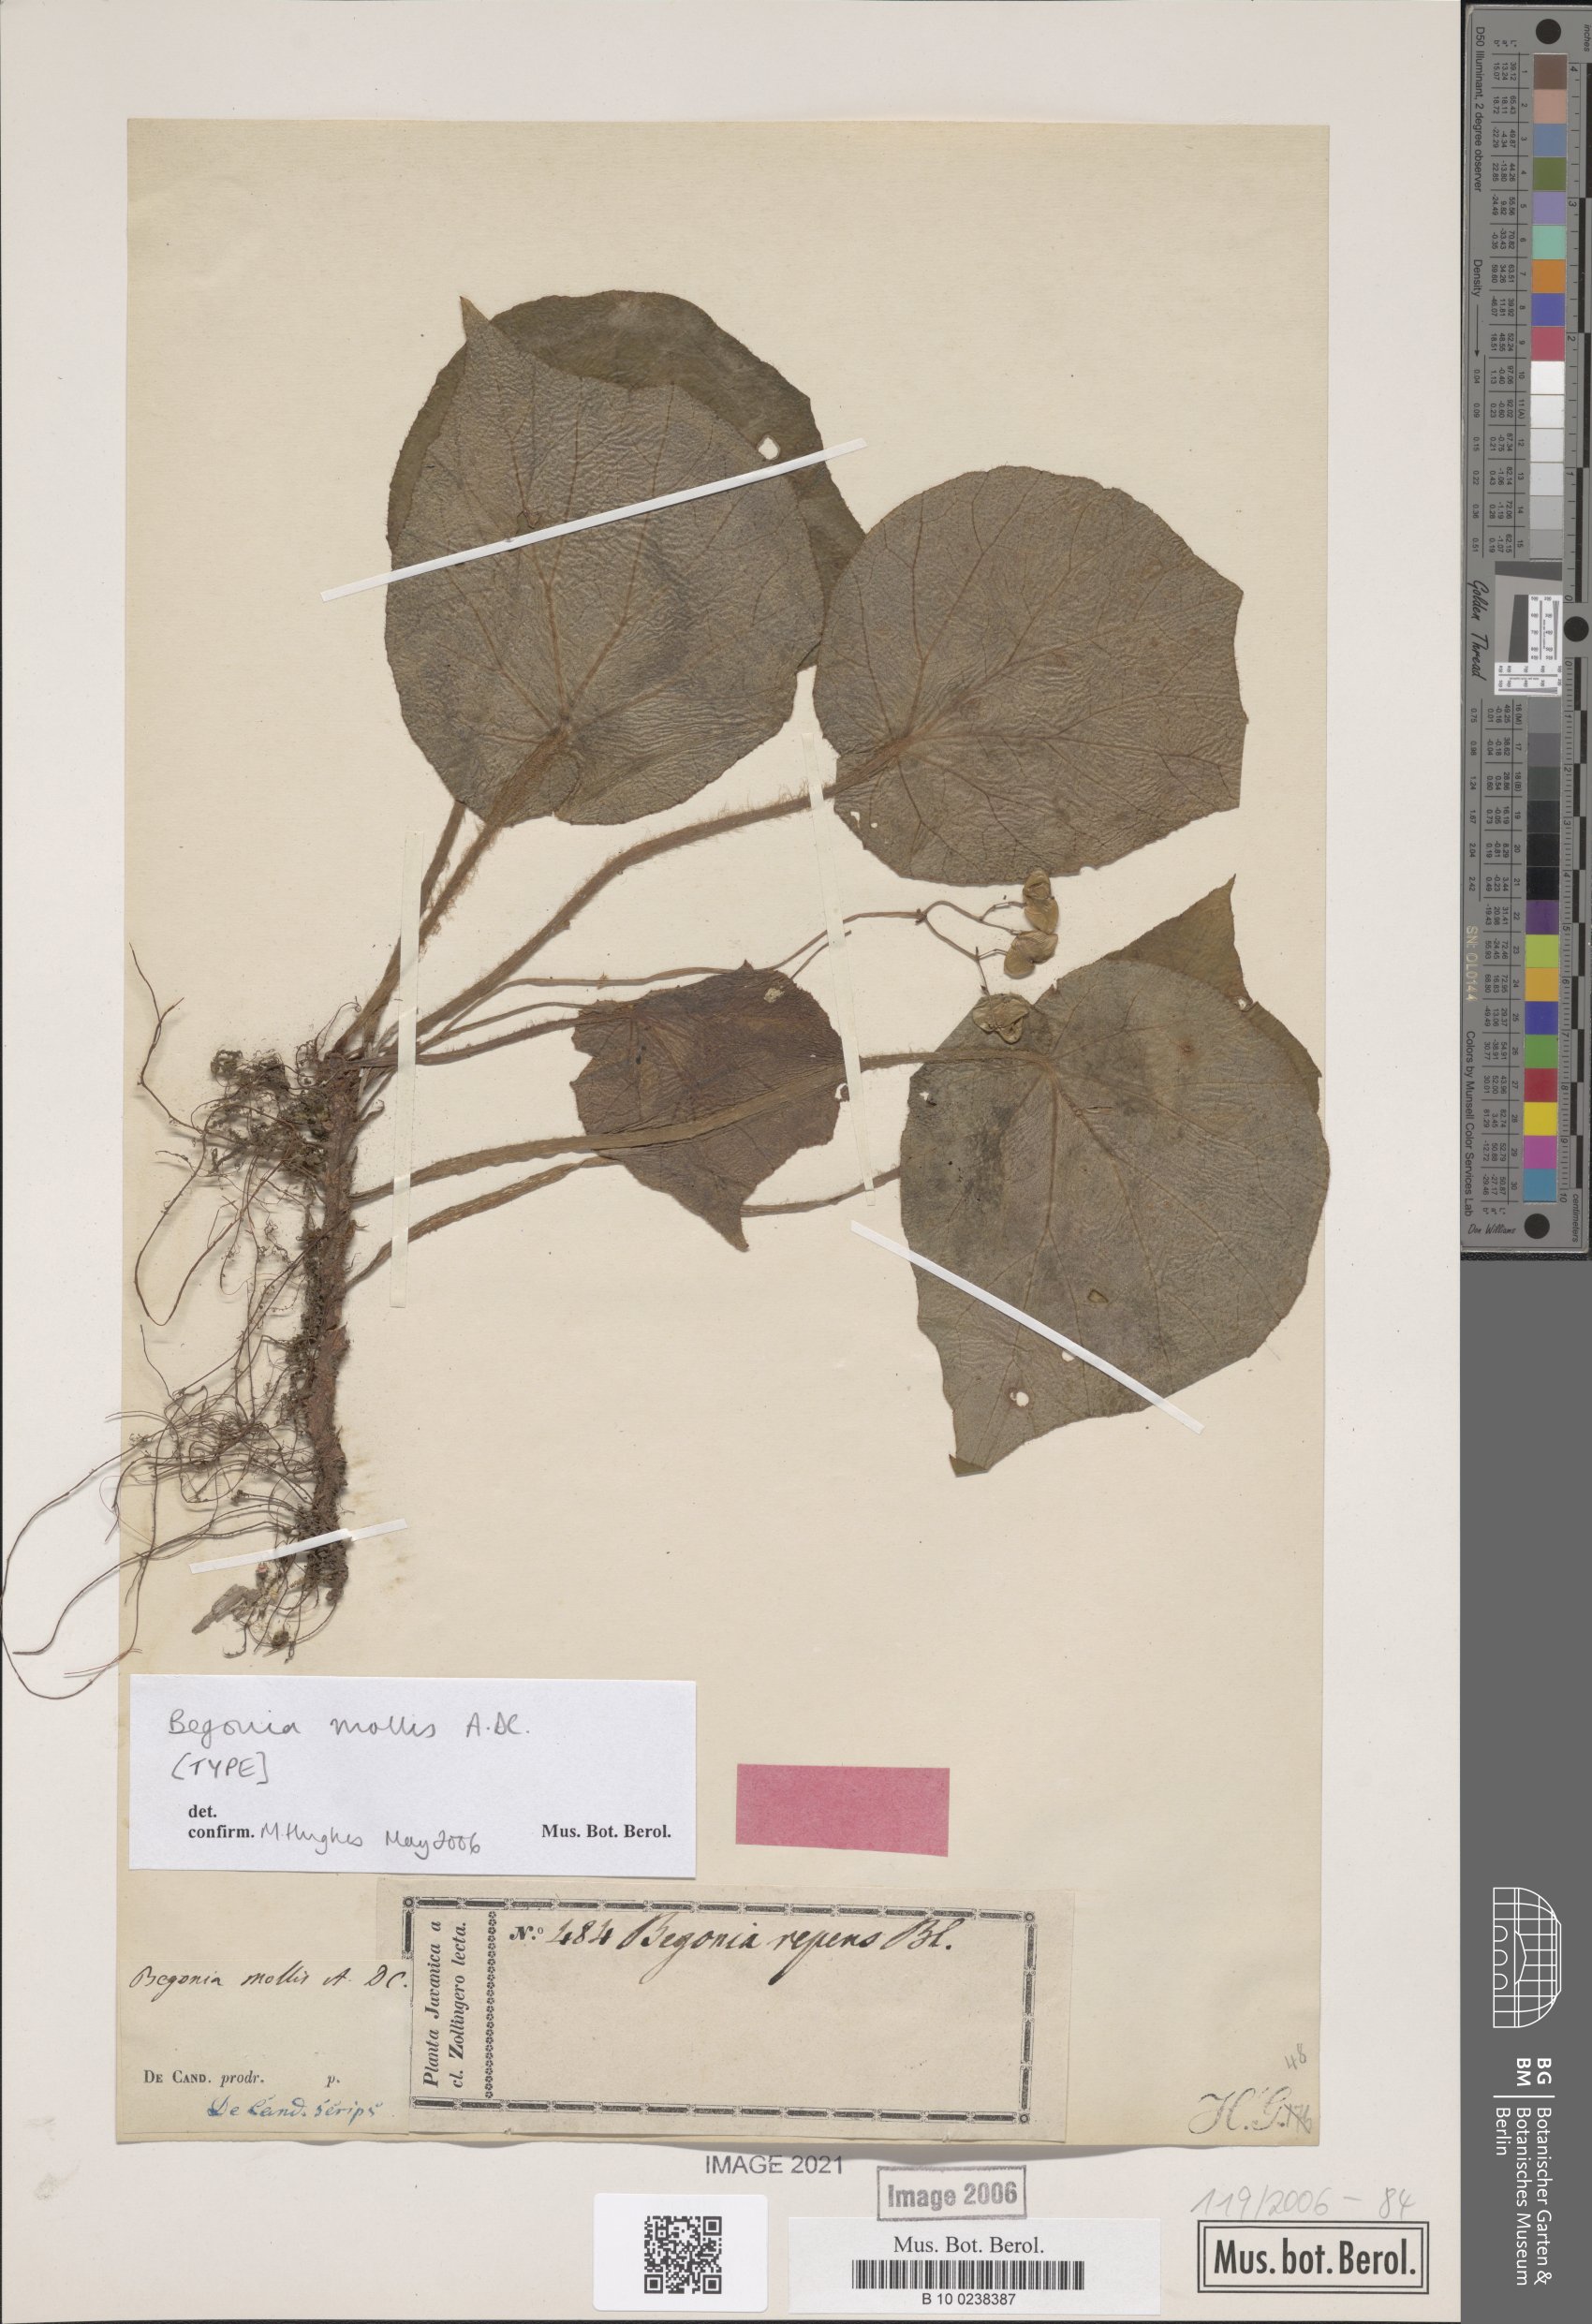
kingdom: Plantae
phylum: Tracheophyta
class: Magnoliopsida
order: Cucurbitales
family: Begoniaceae
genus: Begonia
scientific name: Begonia mollis
